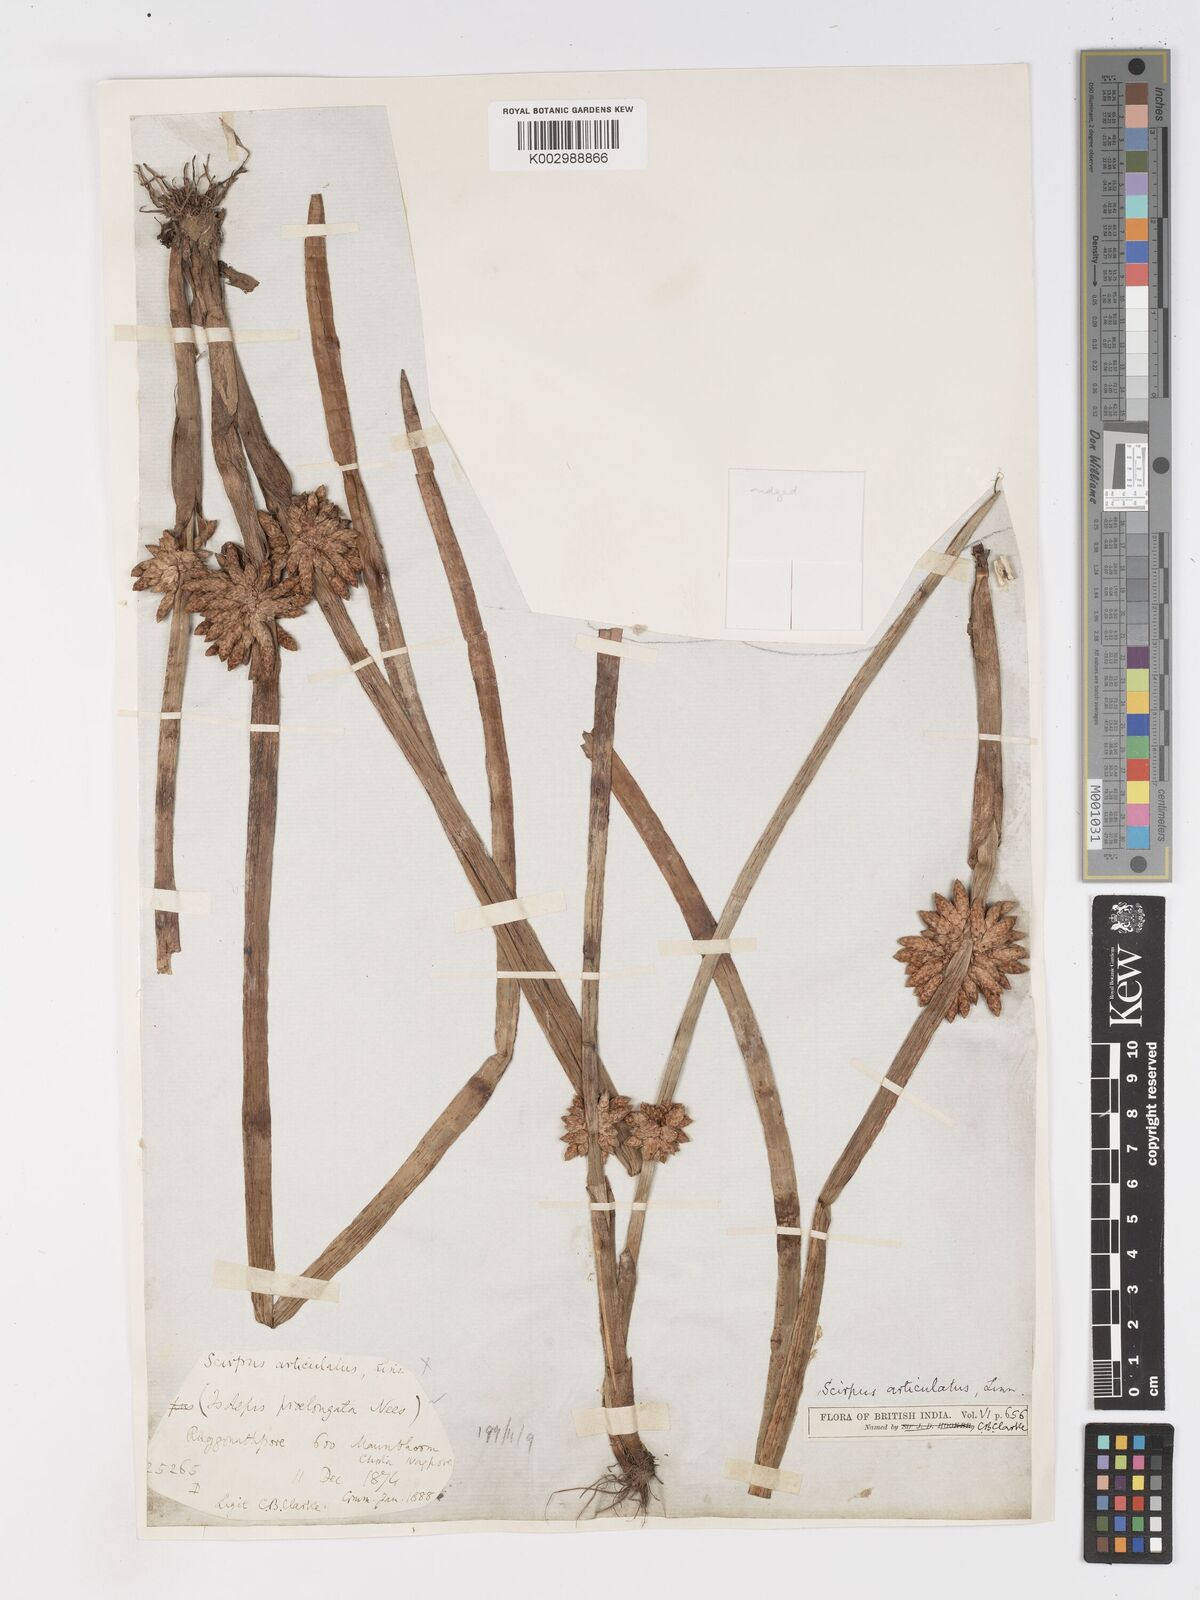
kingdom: Plantae
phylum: Tracheophyta
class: Liliopsida
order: Poales
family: Cyperaceae
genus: Schoenoplectiella
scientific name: Schoenoplectiella praelongata
